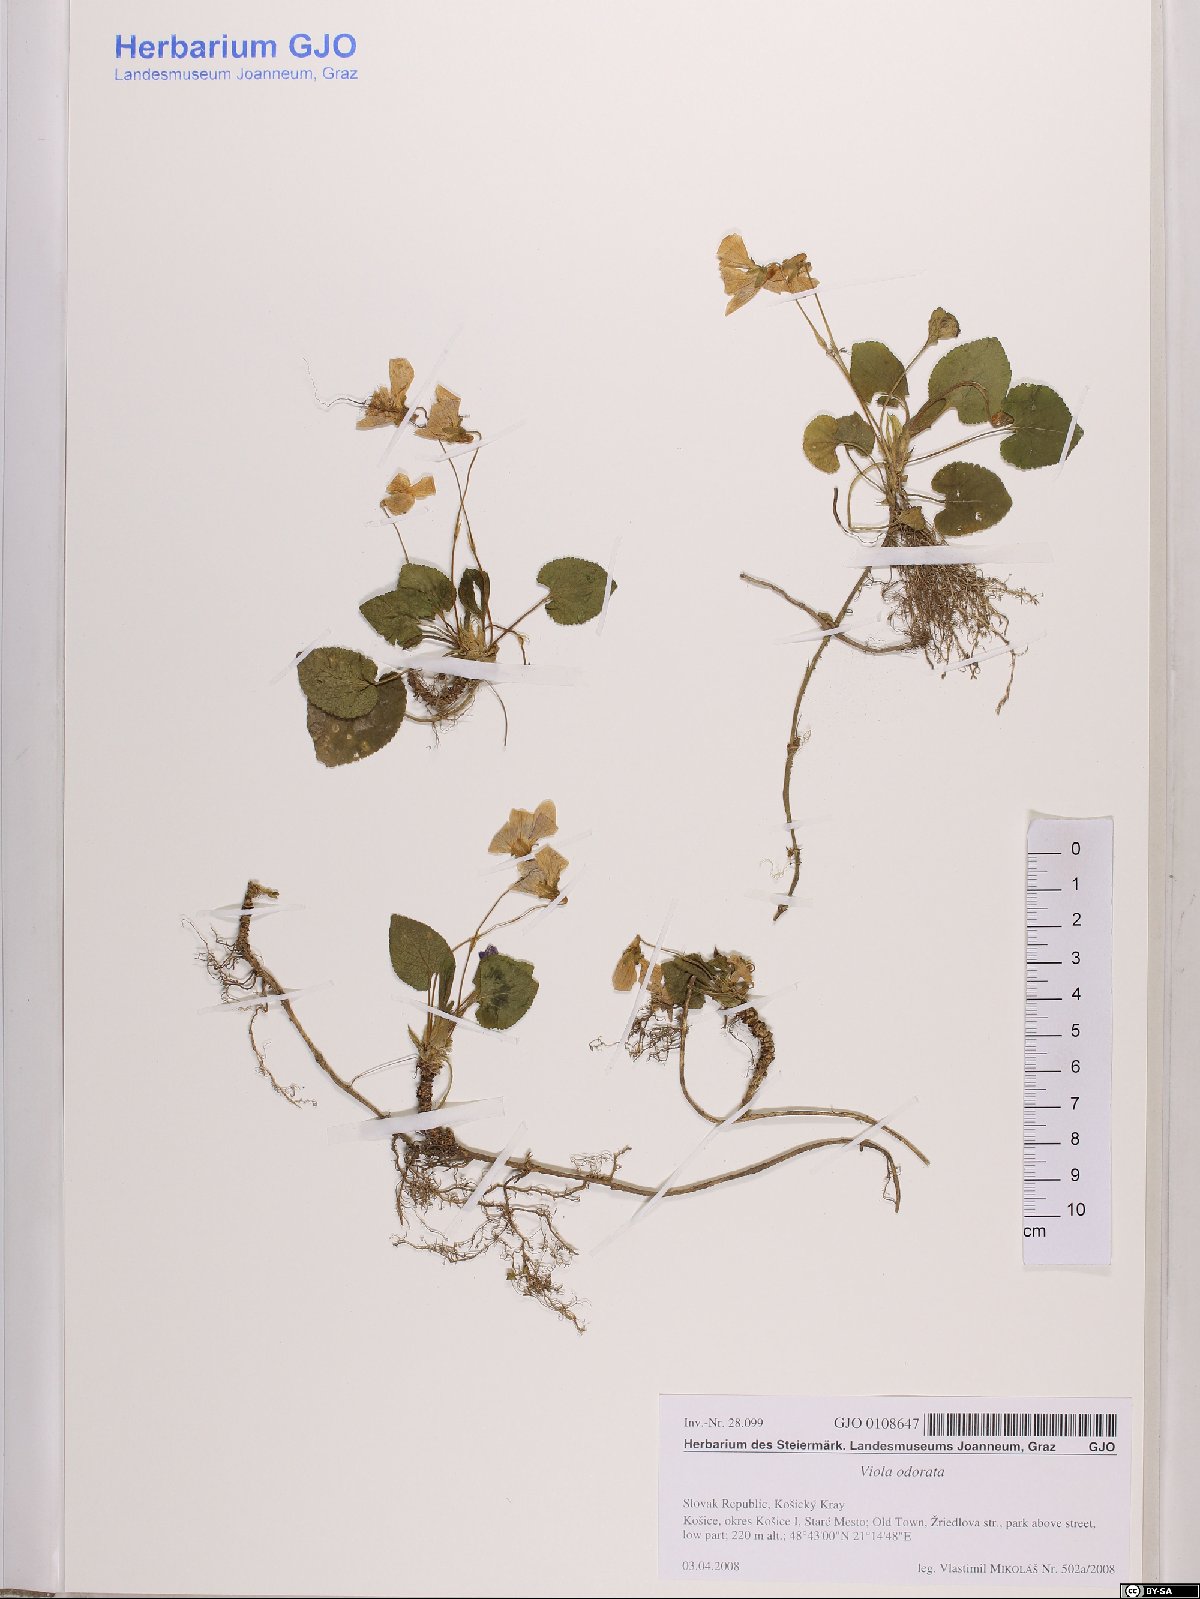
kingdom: Plantae
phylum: Tracheophyta
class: Magnoliopsida
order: Malpighiales
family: Violaceae
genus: Viola
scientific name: Viola odorata
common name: Sweet violet
